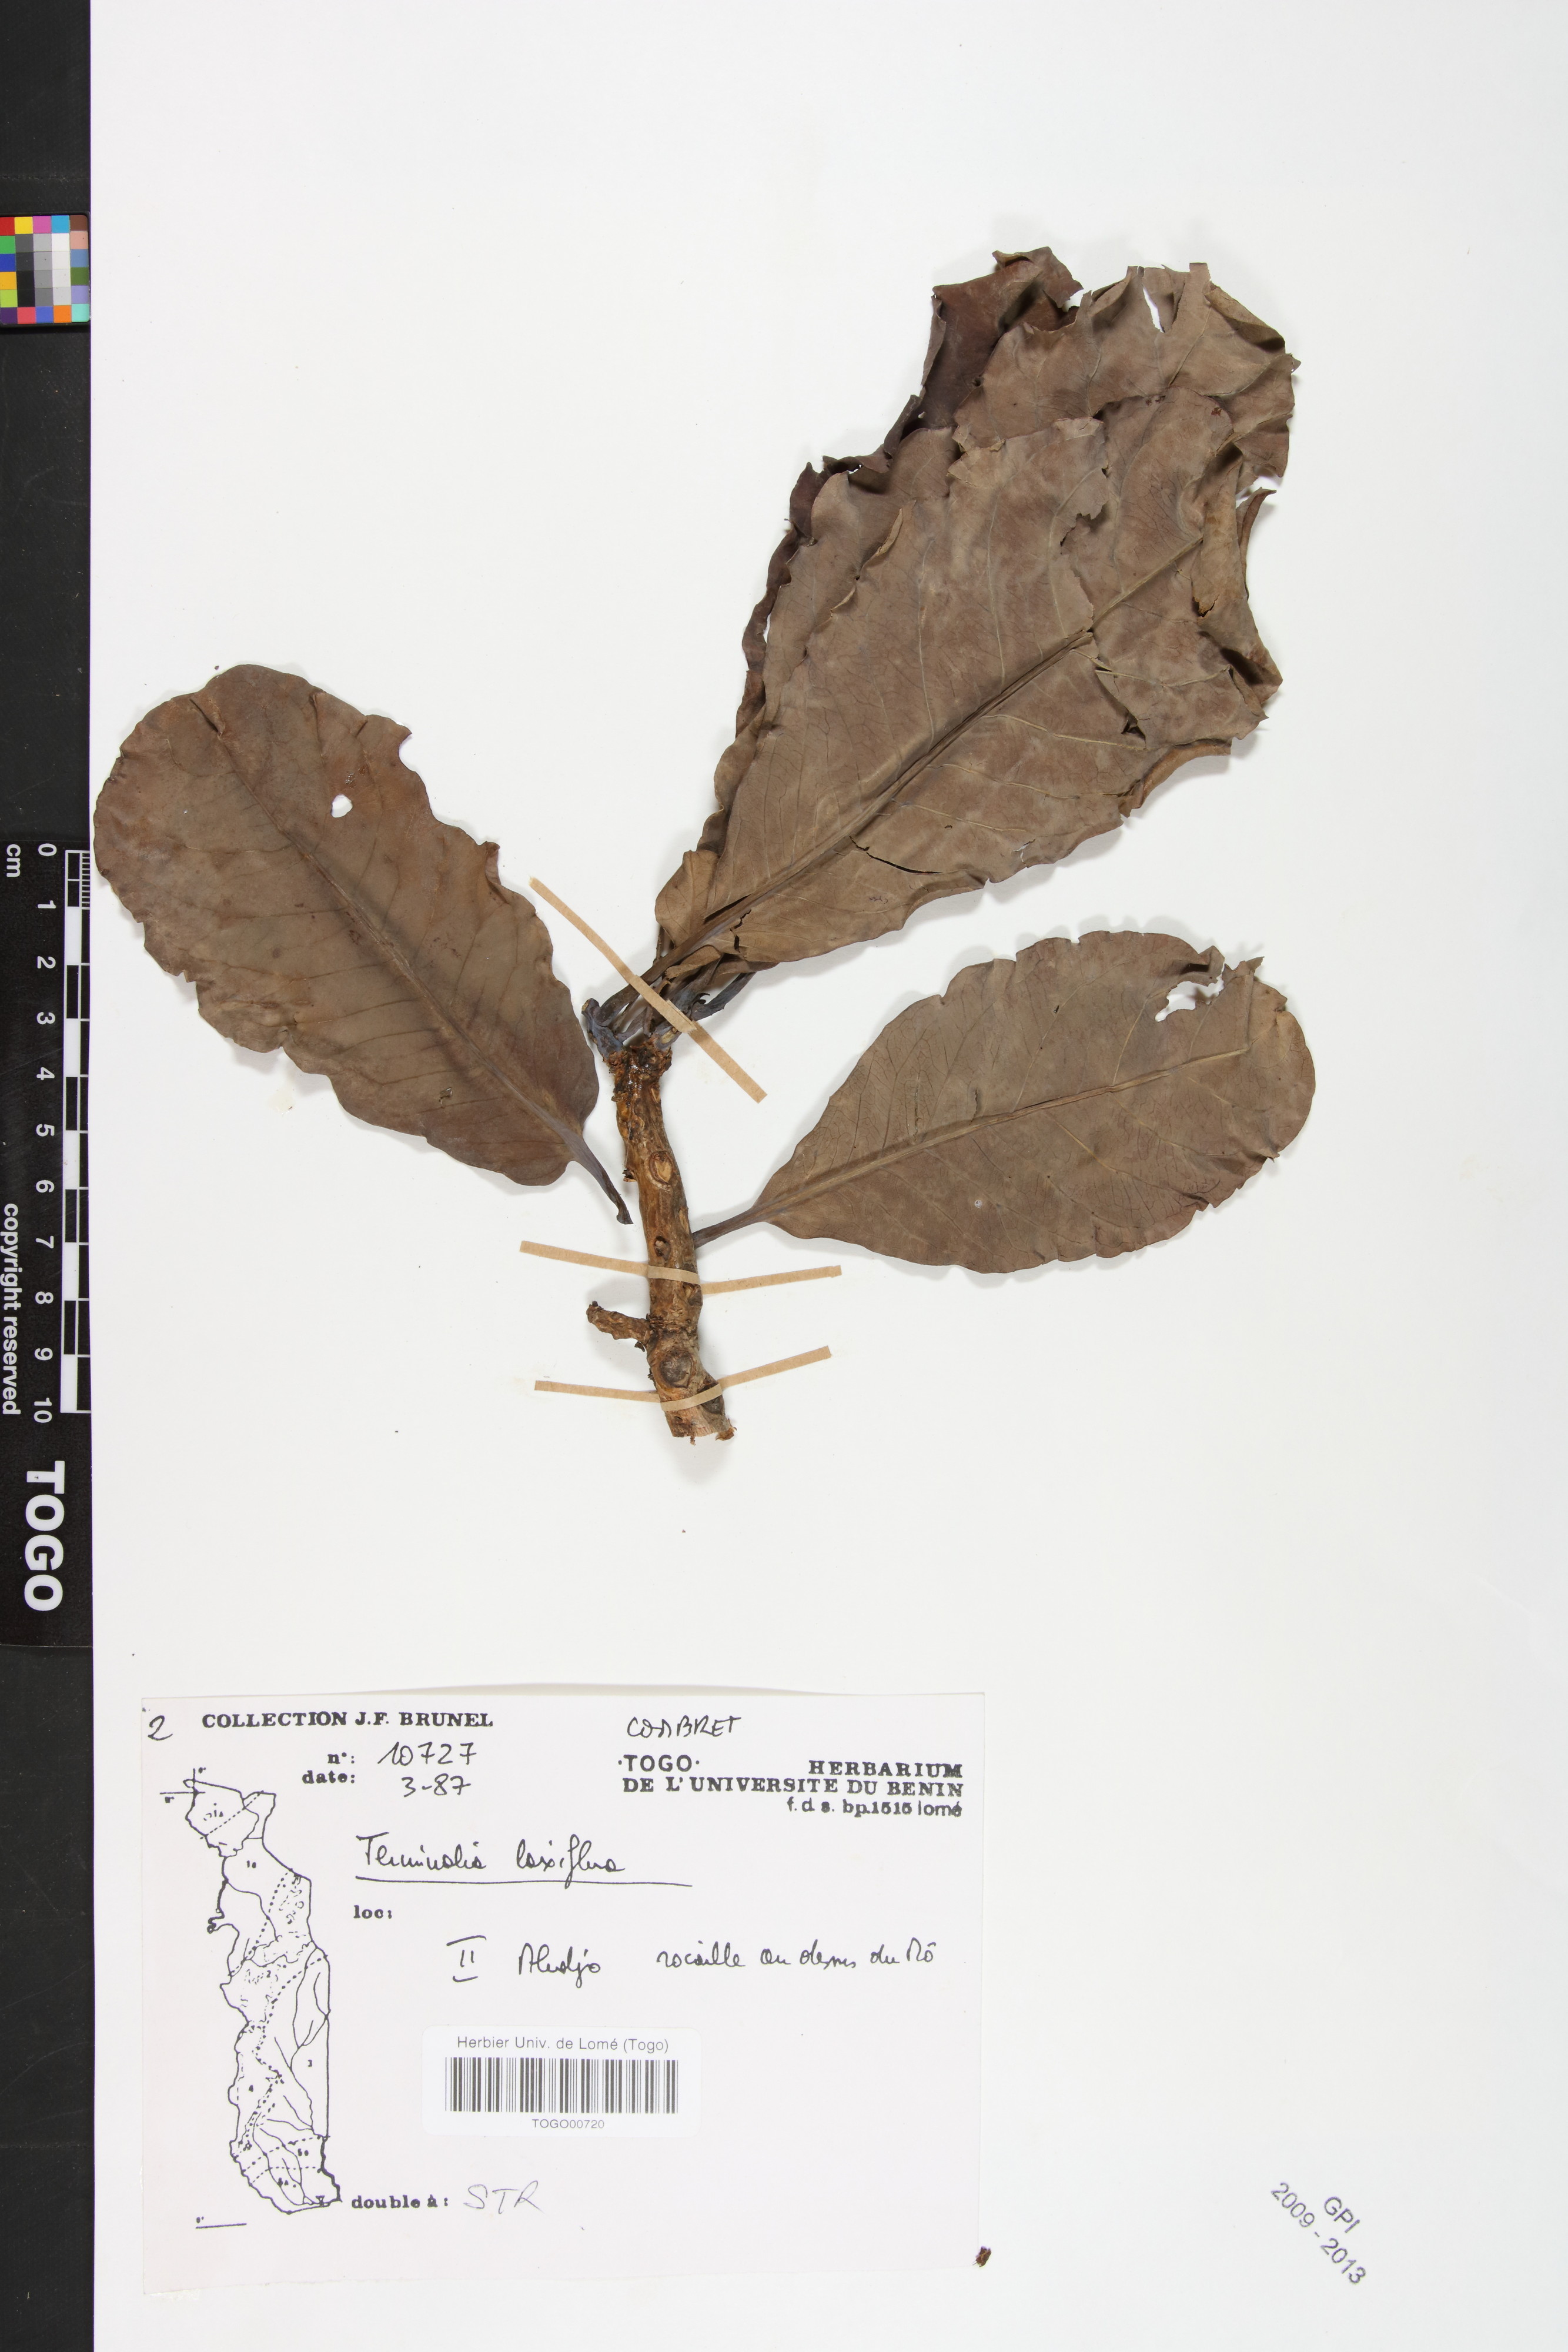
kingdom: Plantae
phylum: Tracheophyta
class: Magnoliopsida
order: Myrtales
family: Combretaceae
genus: Terminalia
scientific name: Terminalia laxiflora
